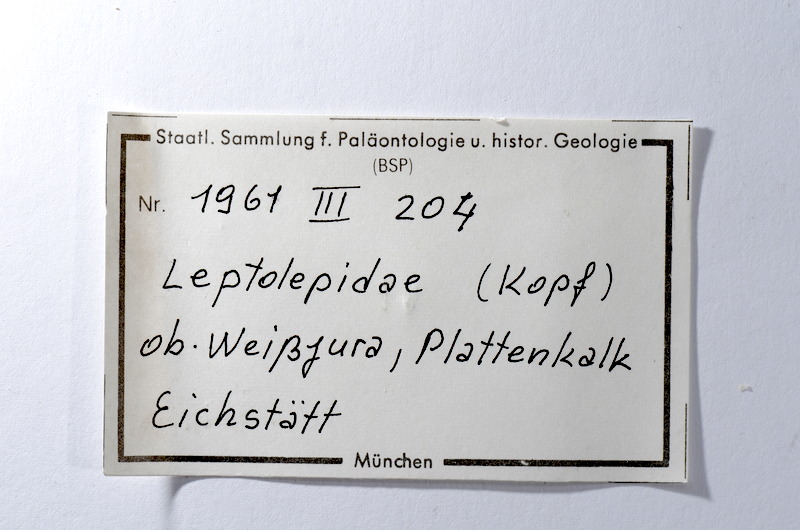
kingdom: Animalia
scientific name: Animalia
